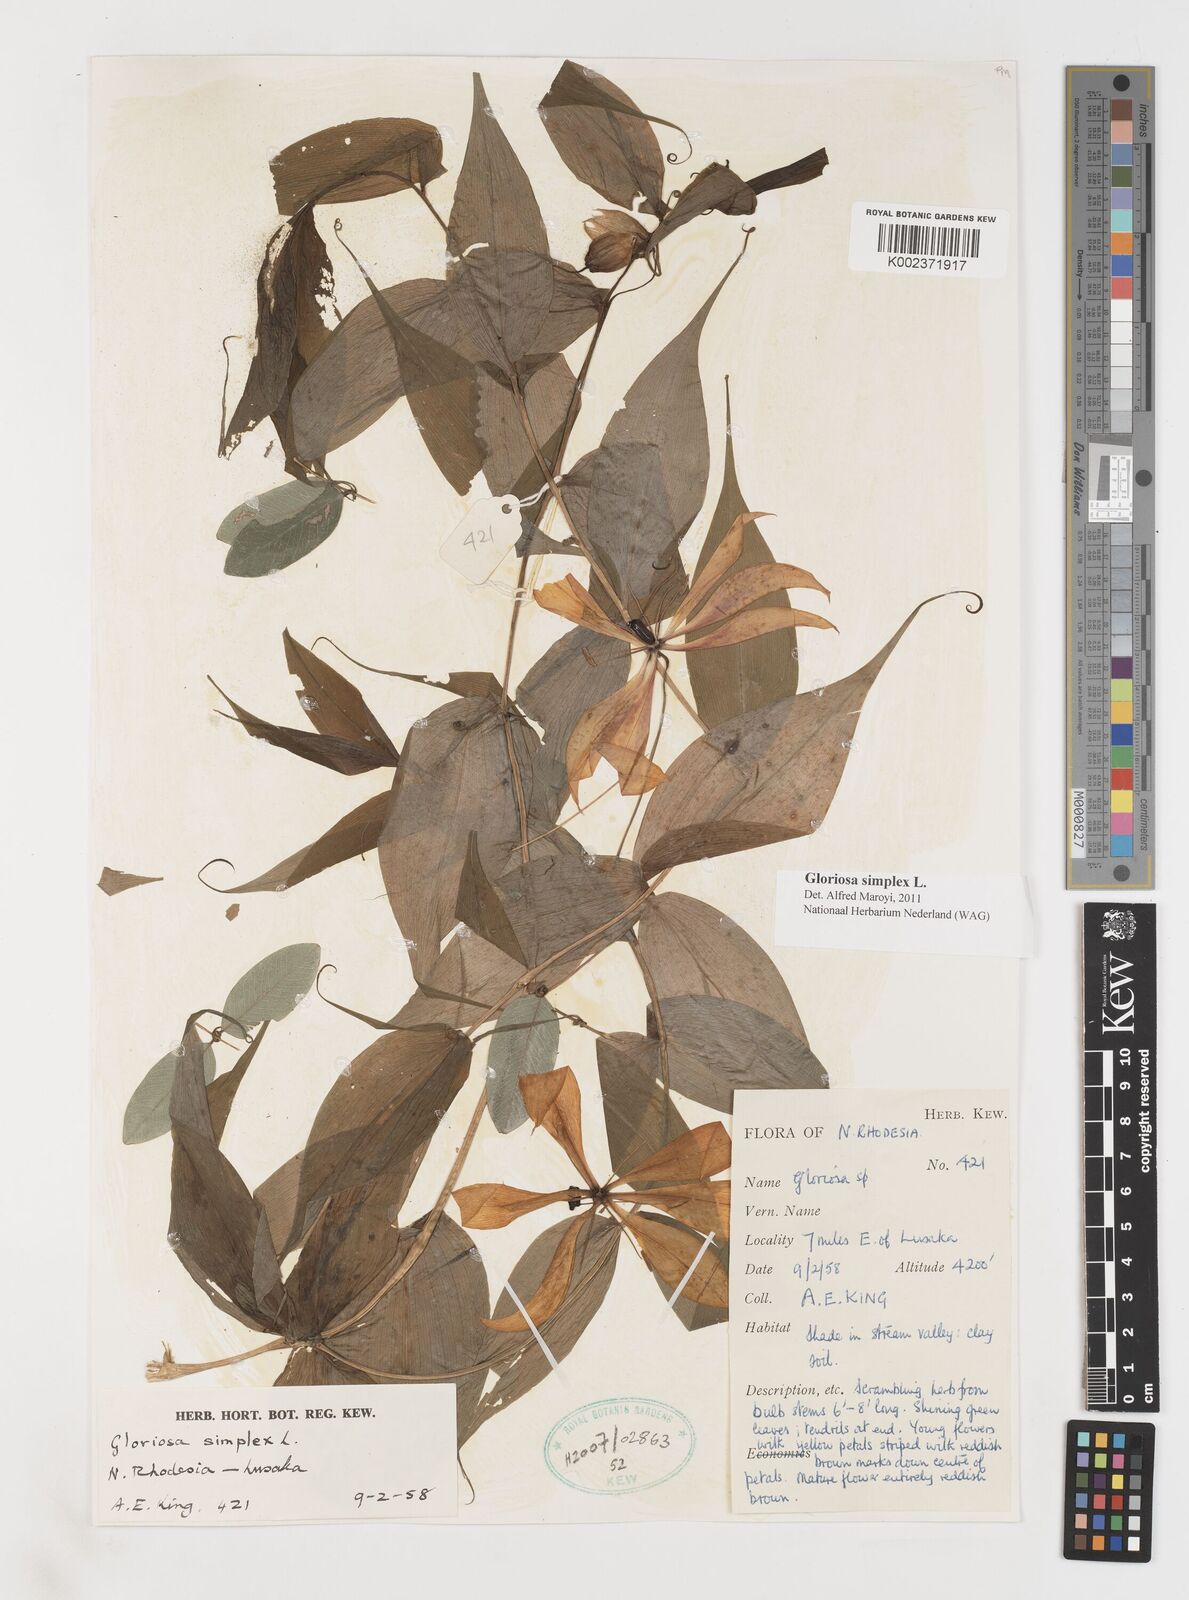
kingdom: Plantae
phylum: Tracheophyta
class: Liliopsida
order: Liliales
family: Colchicaceae
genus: Gloriosa
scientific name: Gloriosa simplex
